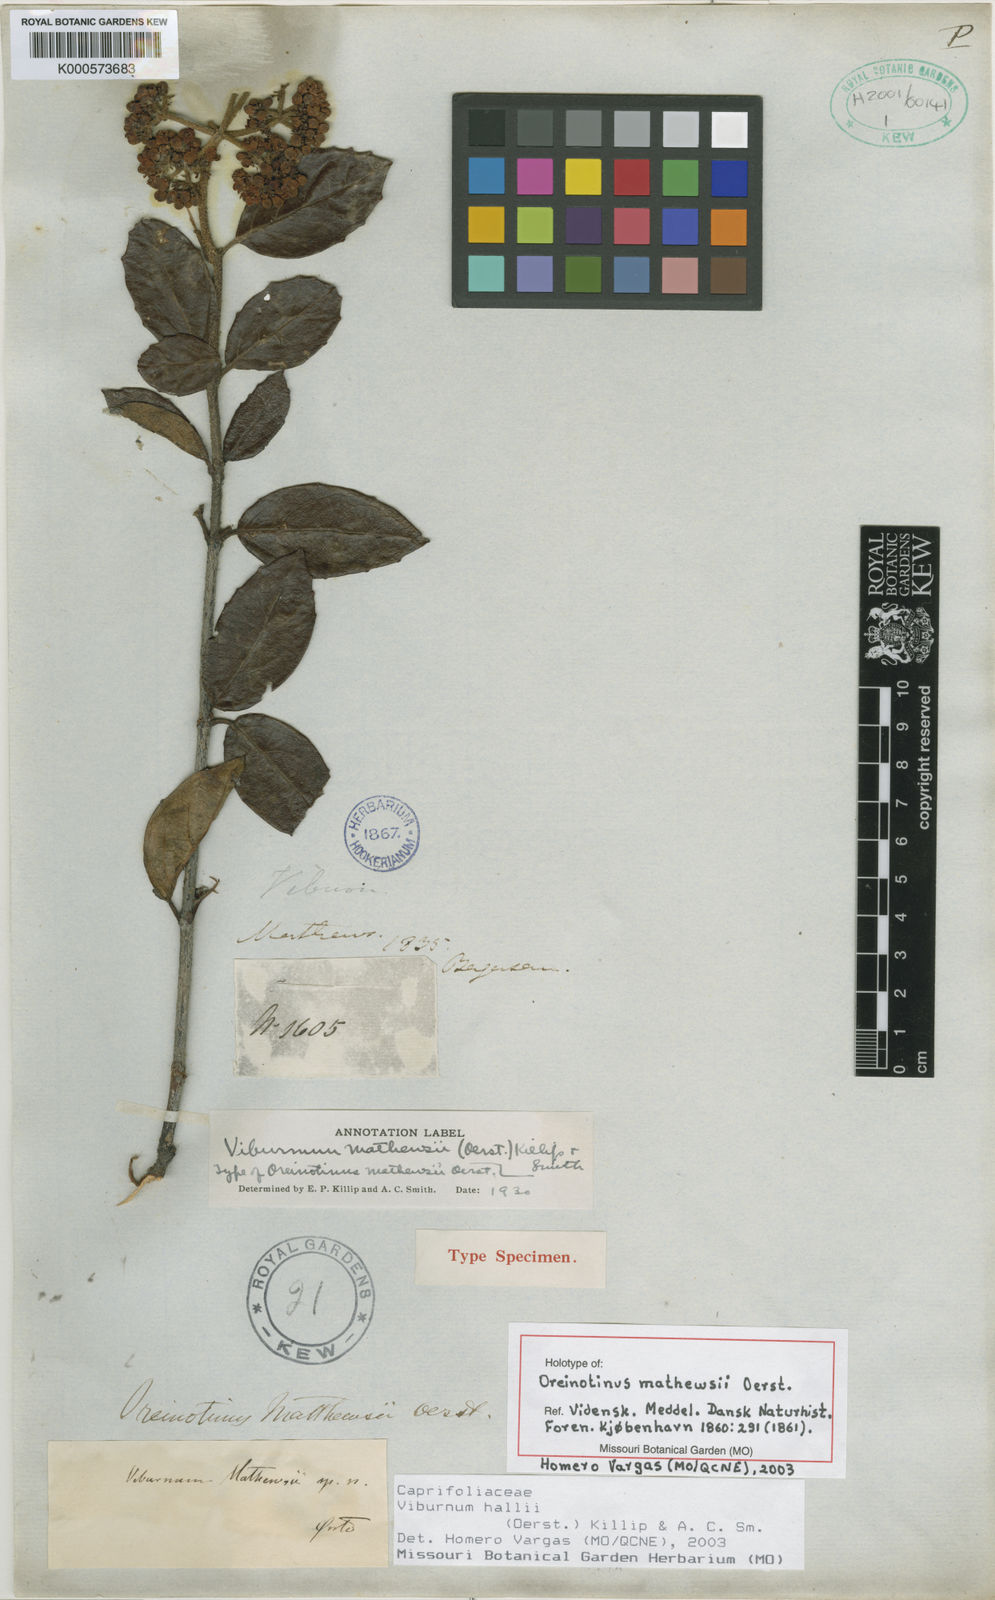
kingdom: Plantae
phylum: Tracheophyta
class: Magnoliopsida
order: Dipsacales
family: Viburnaceae
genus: Viburnum
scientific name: Viburnum hallii
